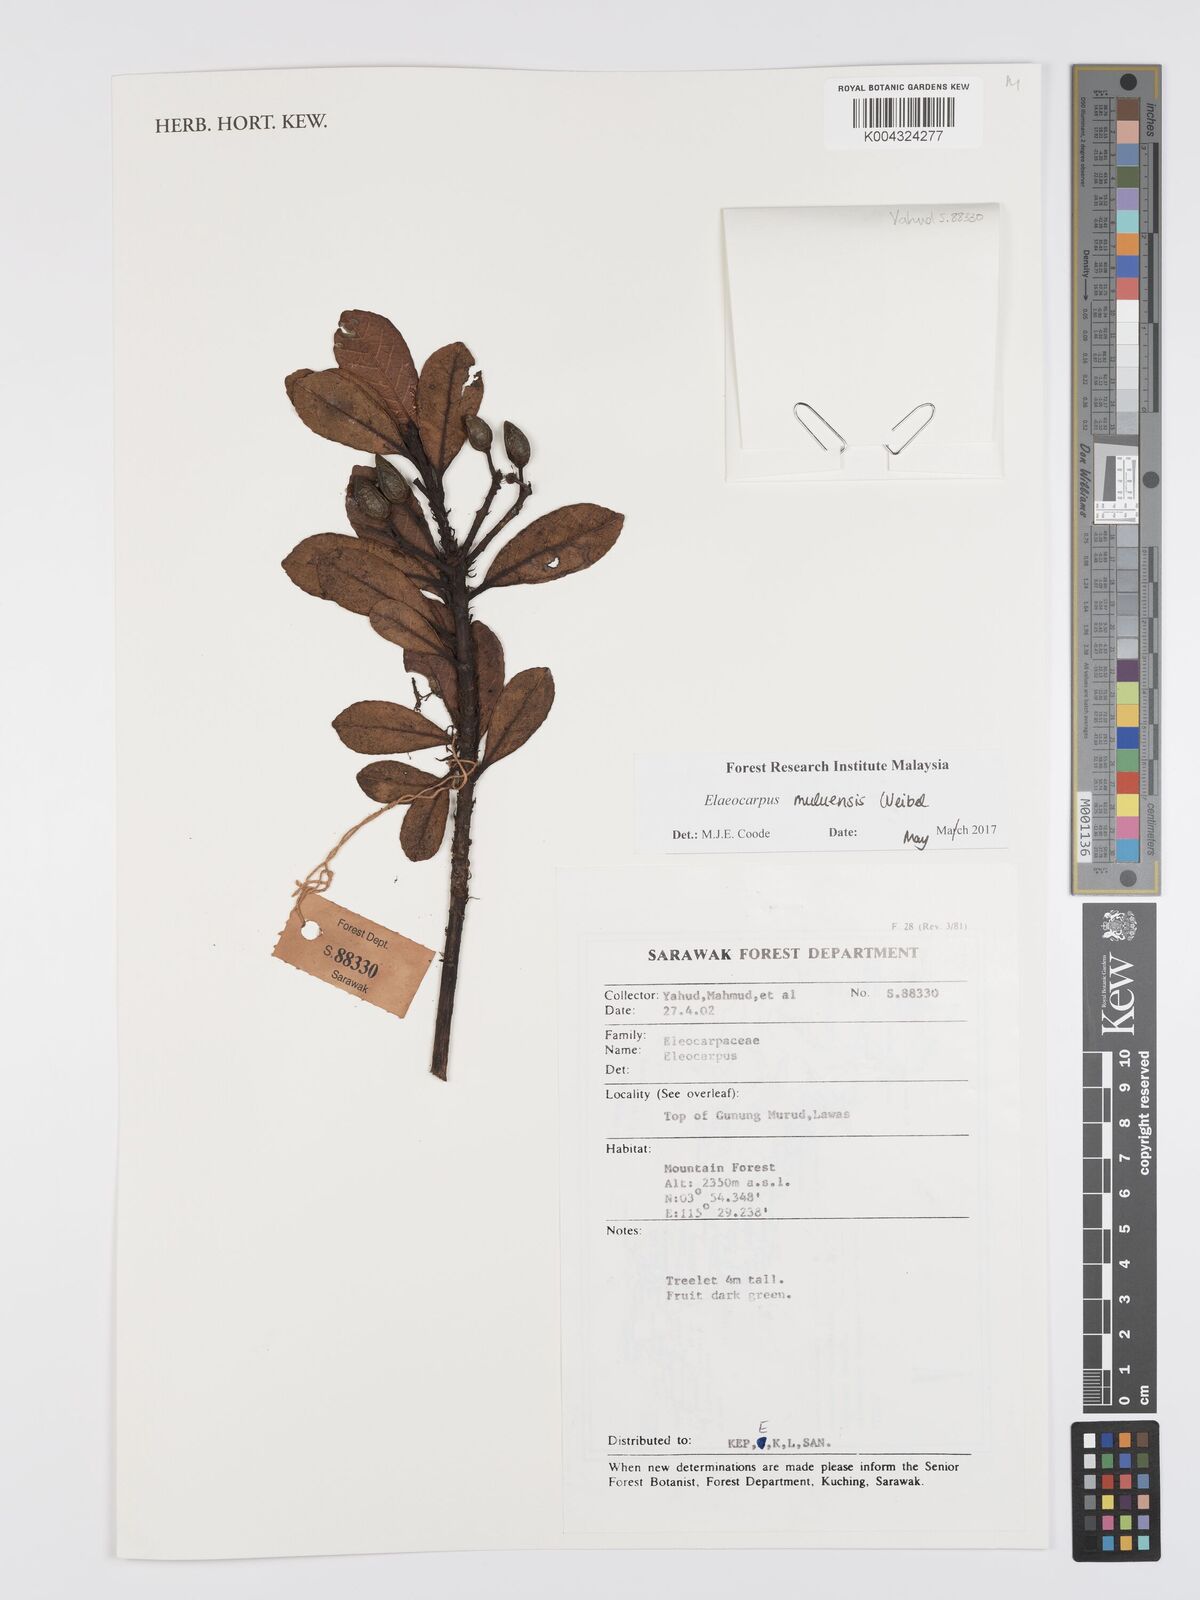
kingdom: Plantae
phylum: Tracheophyta
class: Magnoliopsida
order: Oxalidales
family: Elaeocarpaceae
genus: Elaeocarpus
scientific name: Elaeocarpus muluensis
